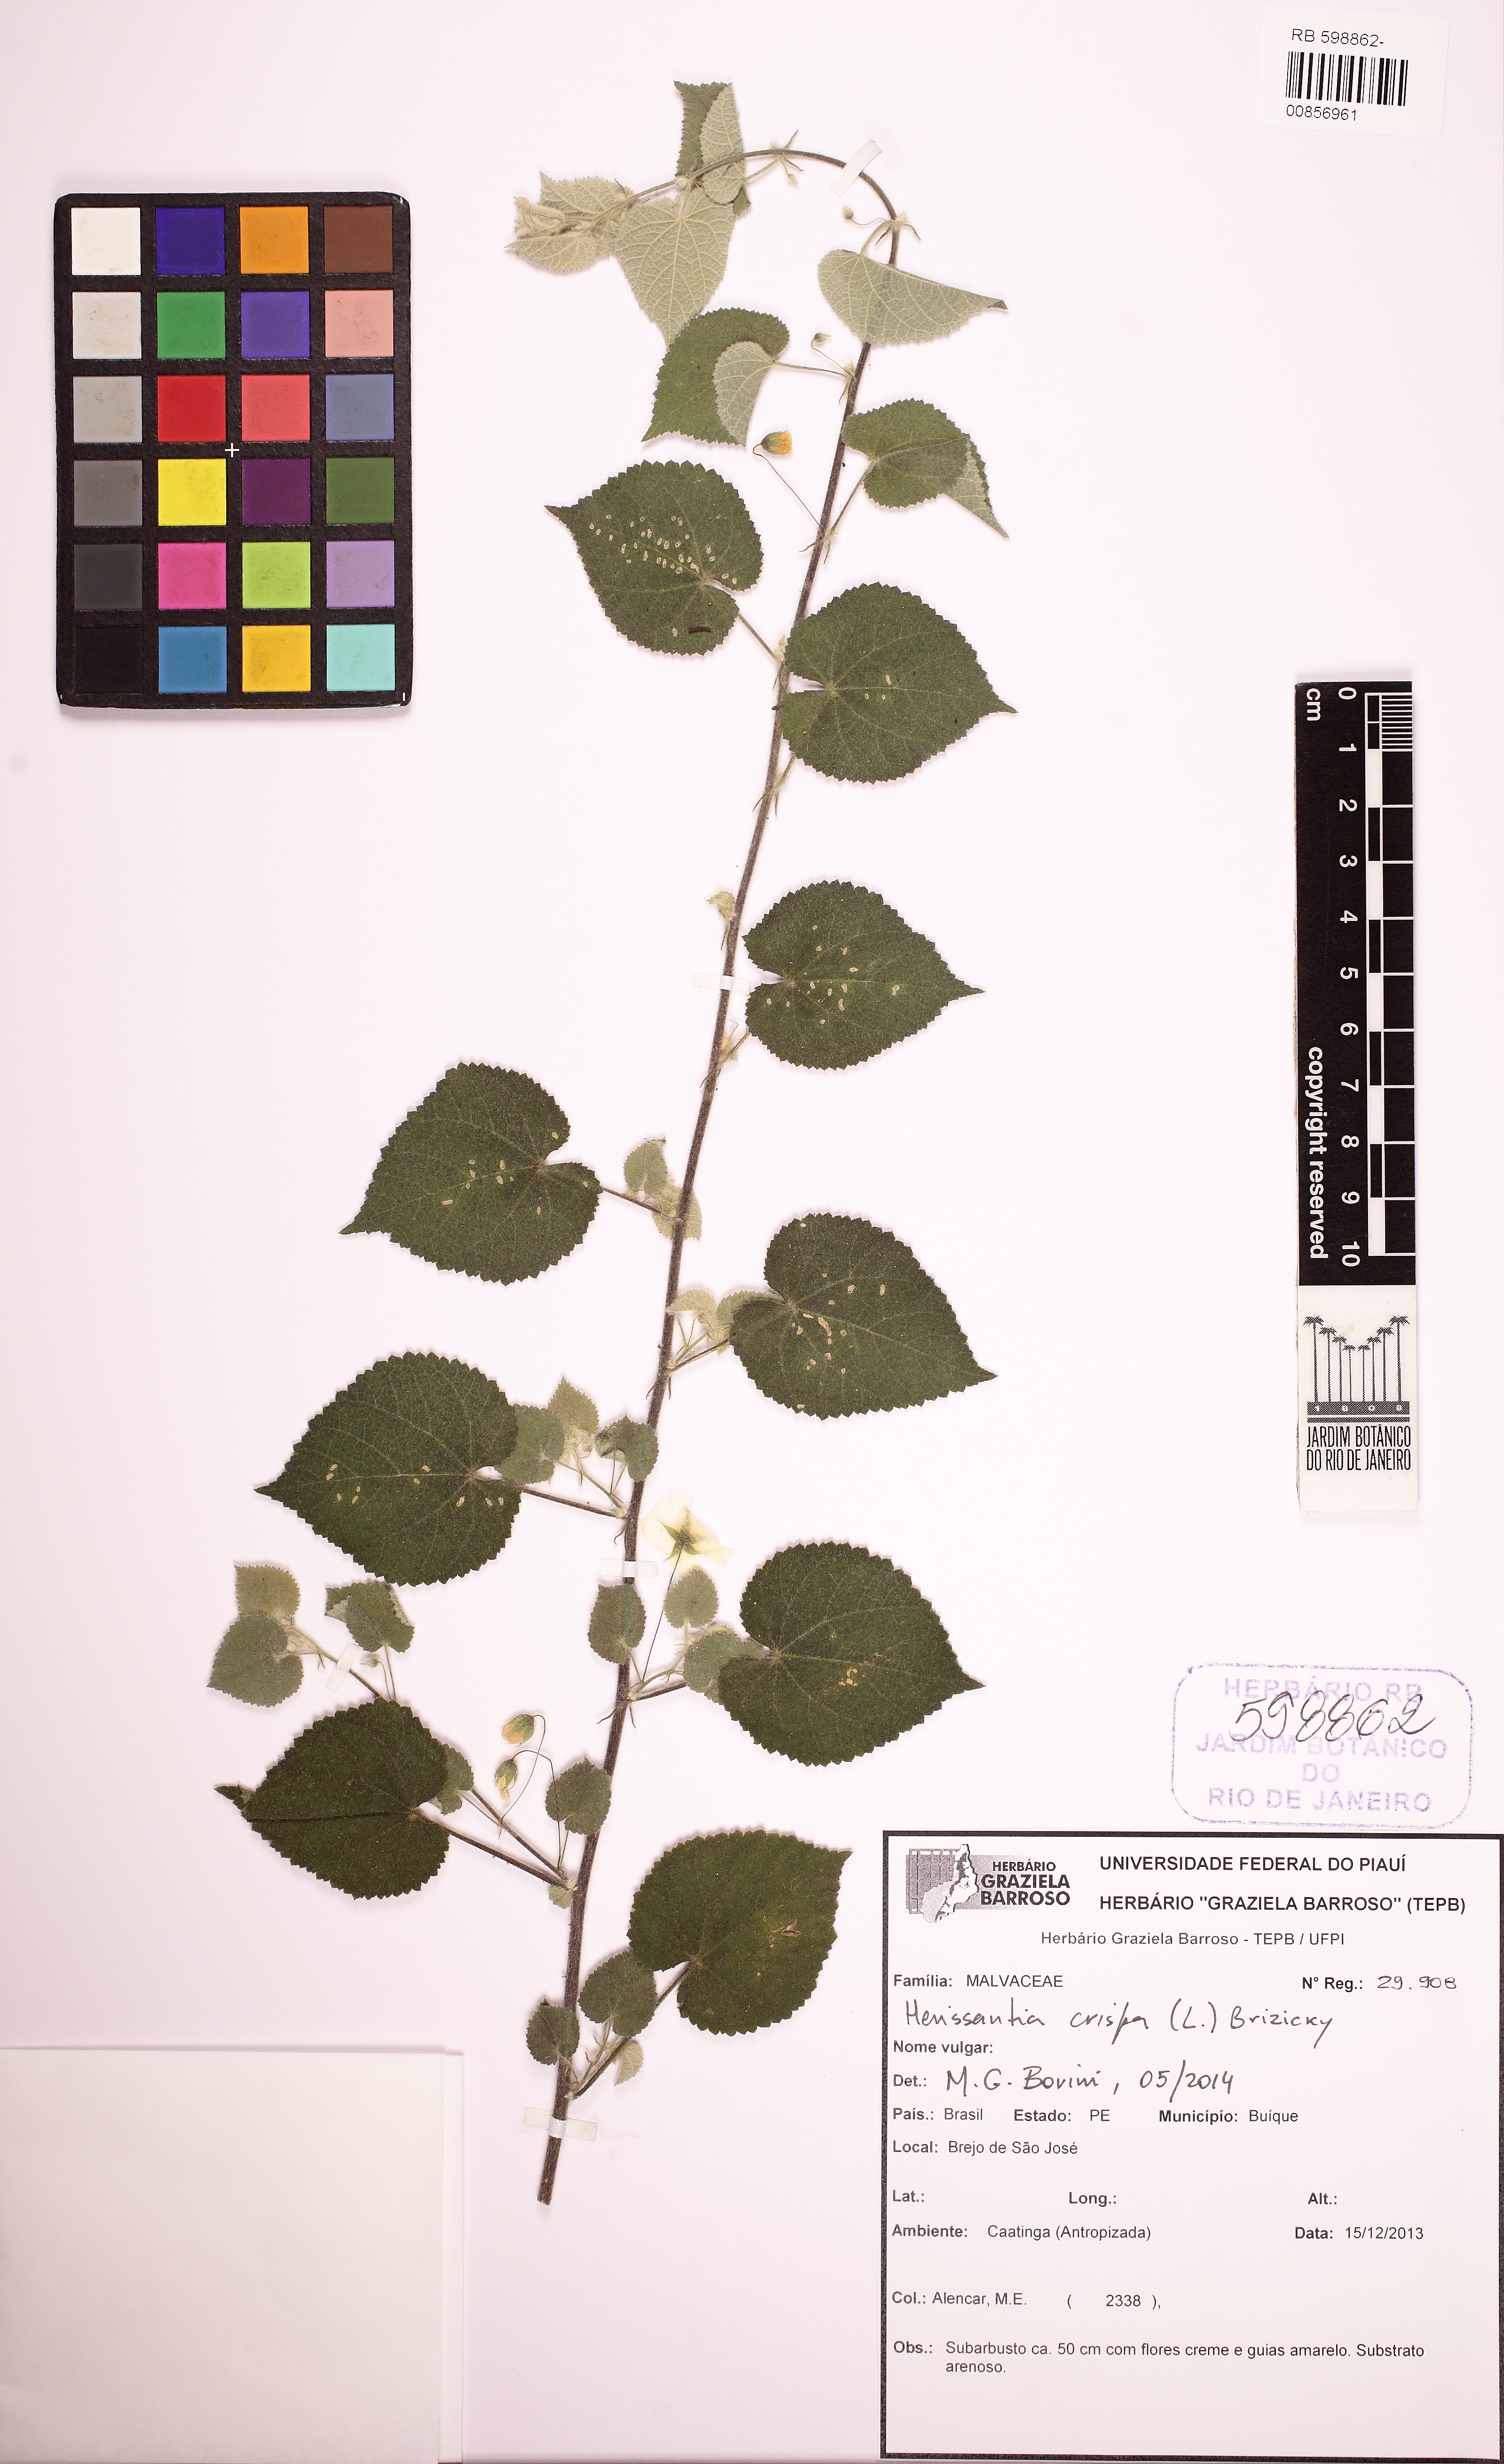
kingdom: Plantae
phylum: Tracheophyta
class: Magnoliopsida
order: Malvales
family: Malvaceae
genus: Herissantia
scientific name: Herissantia crispa
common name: Bladdermallow
